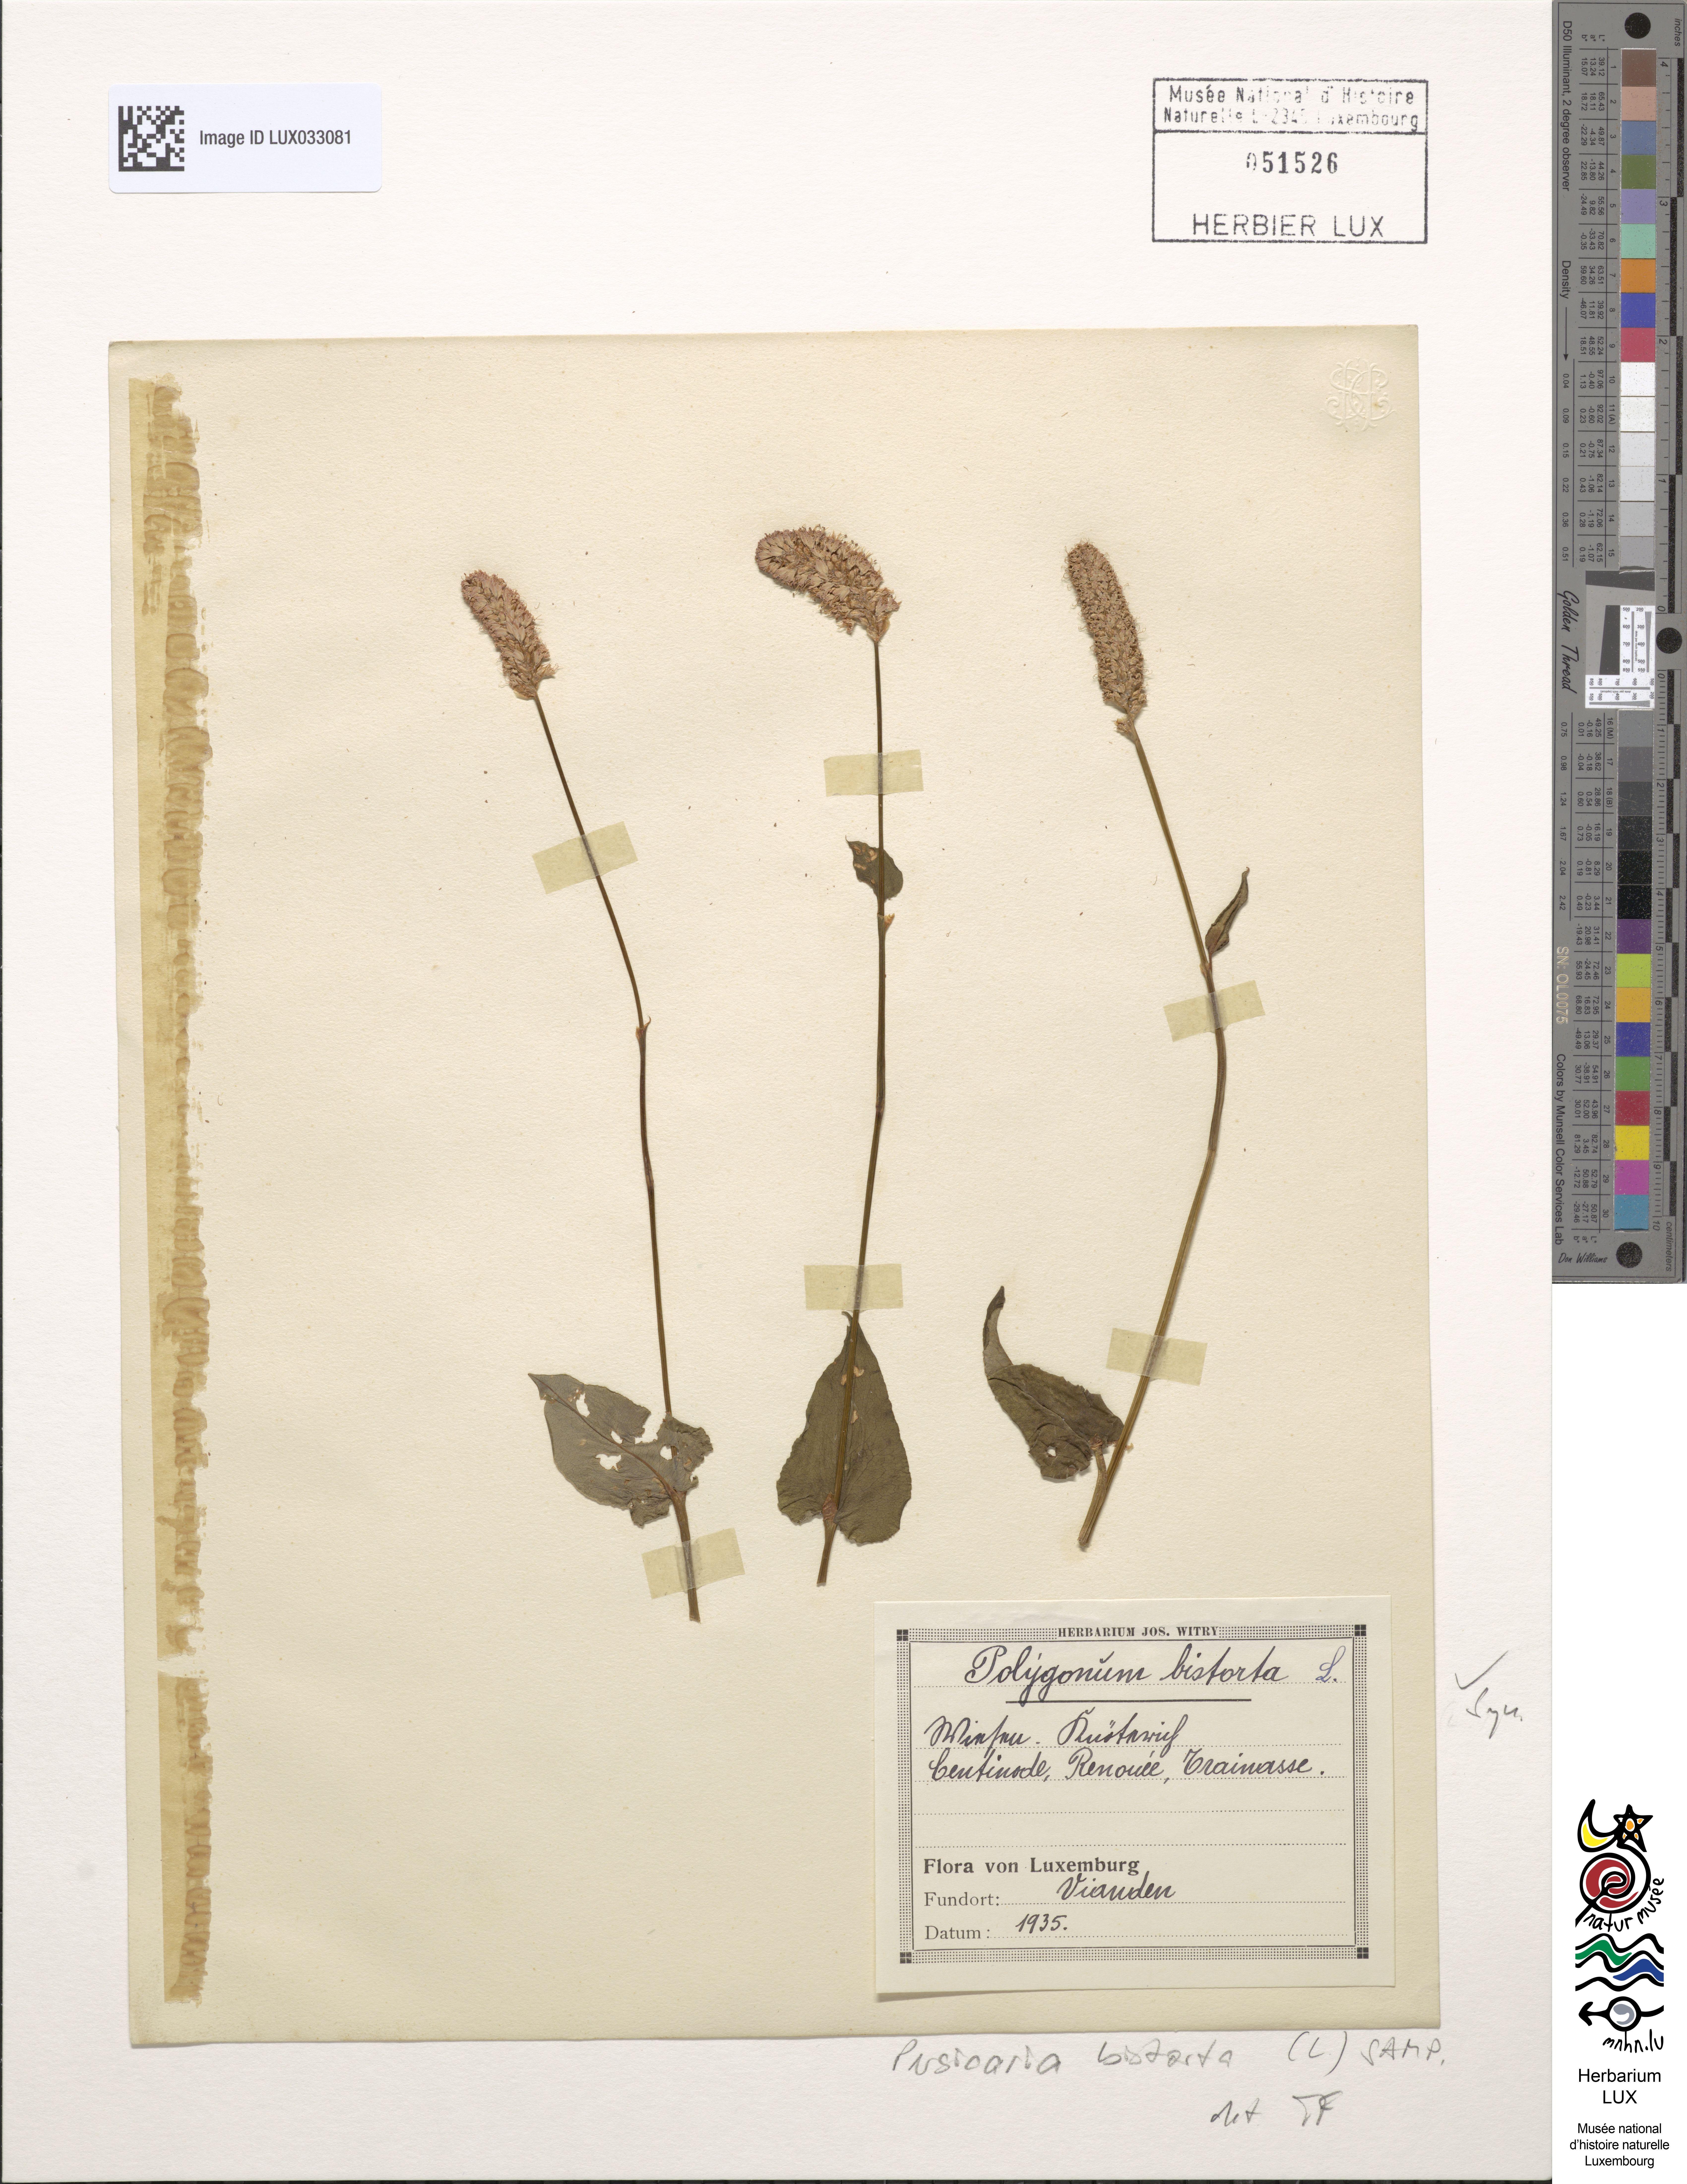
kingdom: Plantae
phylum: Tracheophyta
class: Magnoliopsida
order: Caryophyllales
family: Polygonaceae
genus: Bistorta
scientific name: Bistorta officinalis
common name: Common bistort
